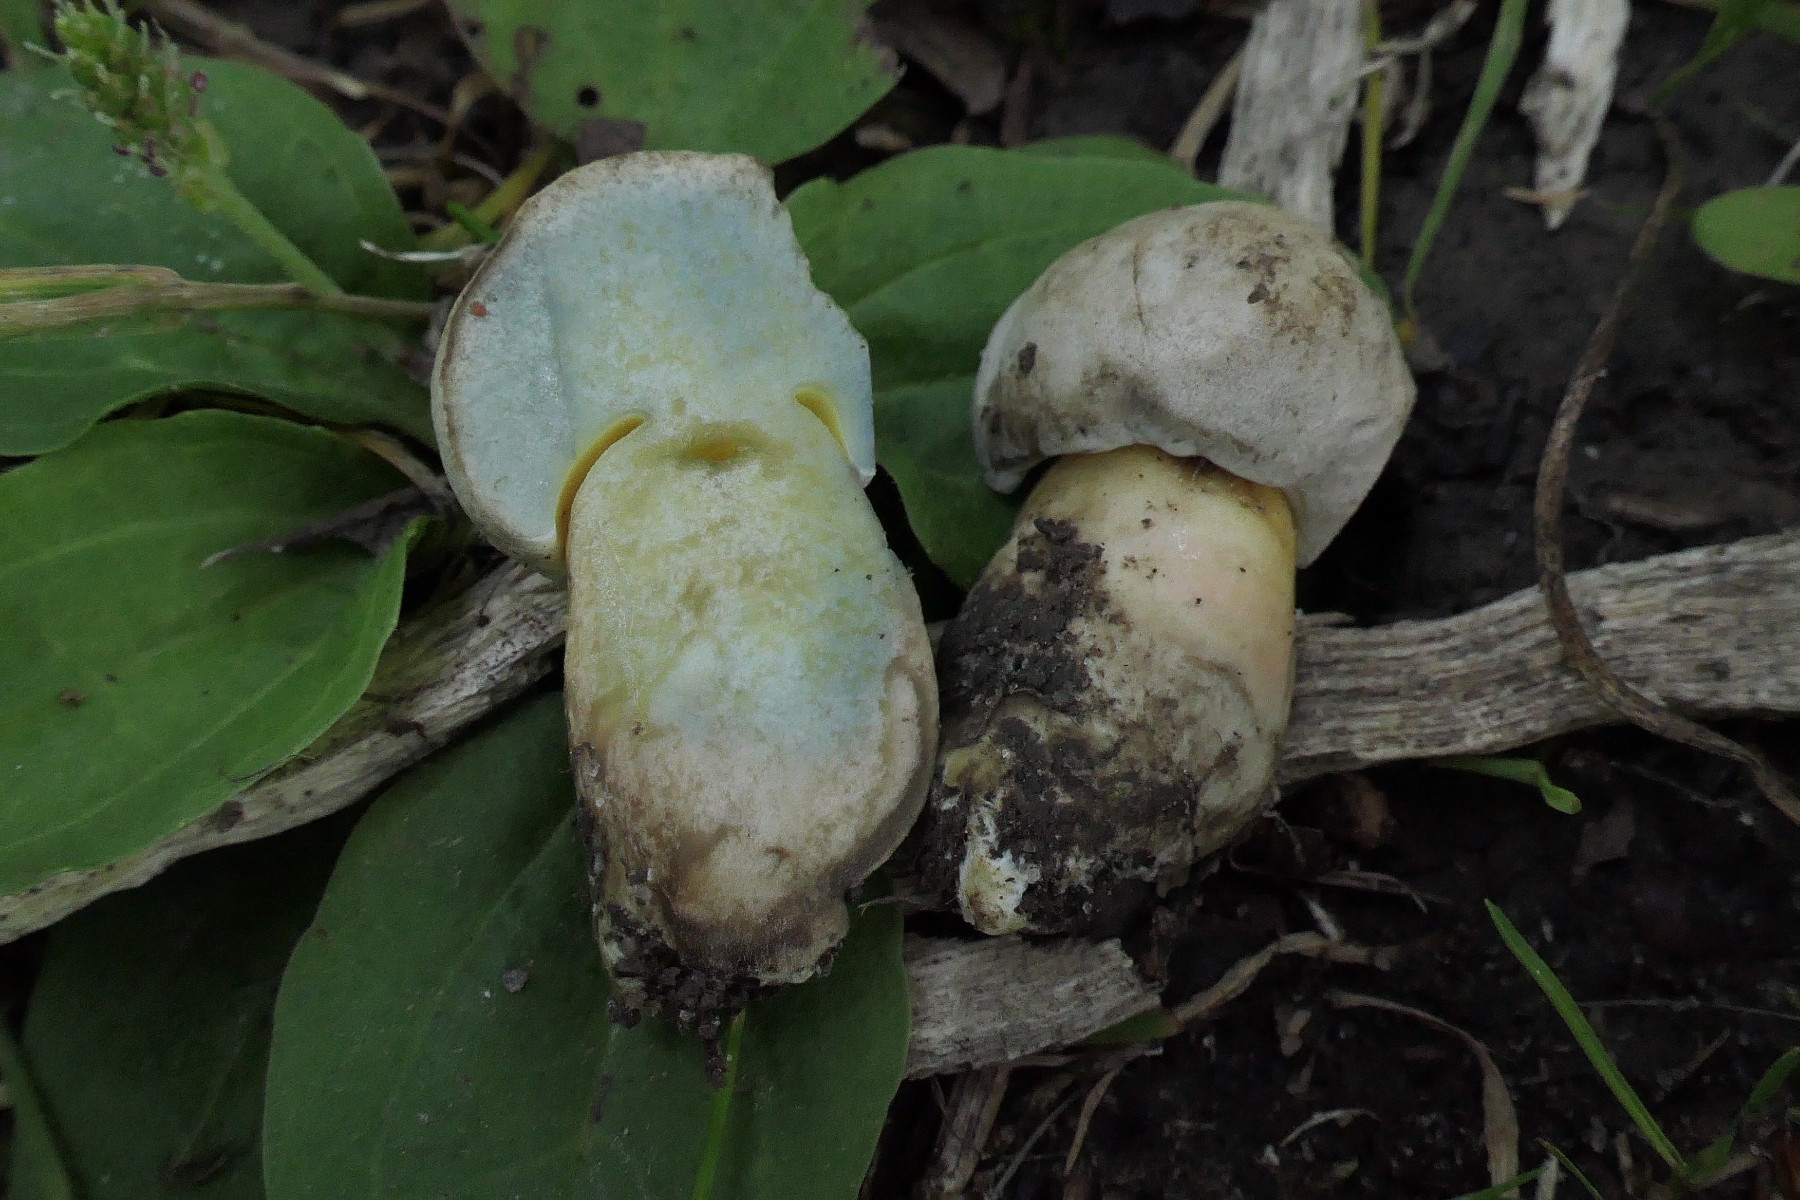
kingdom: Fungi
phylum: Basidiomycota
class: Agaricomycetes
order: Boletales
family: Boletaceae
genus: Caloboletus
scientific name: Caloboletus radicans
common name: rod-rørhat
